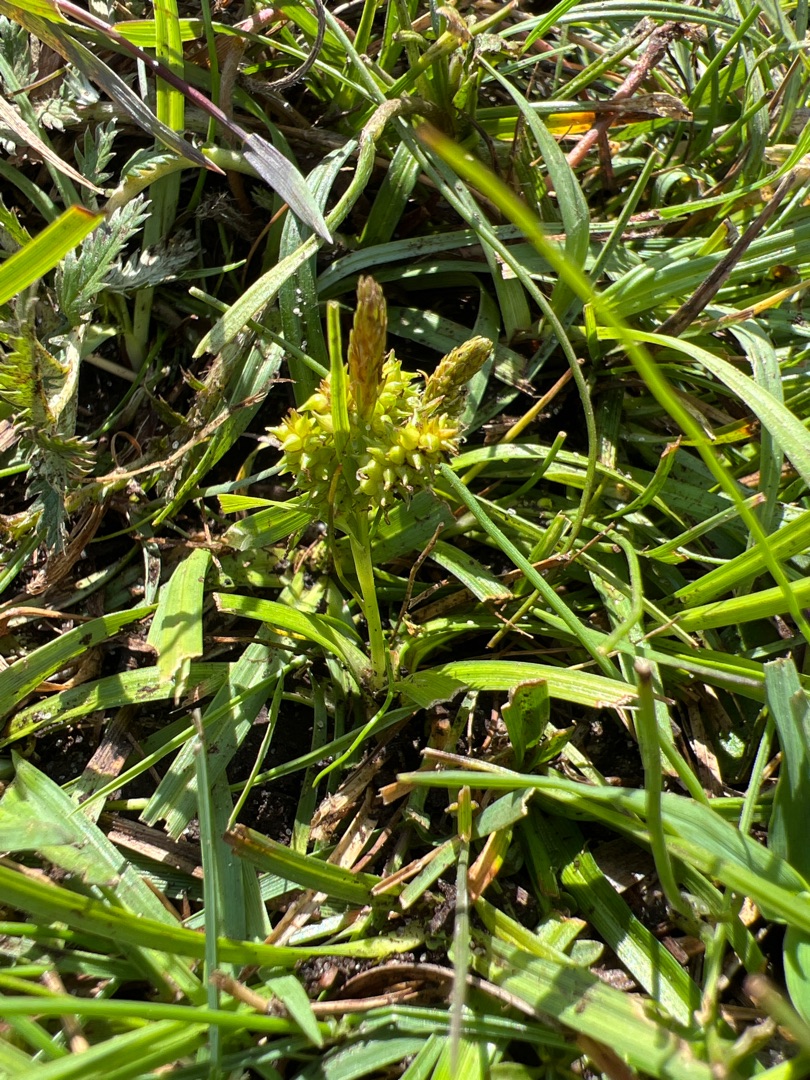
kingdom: Plantae
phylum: Tracheophyta
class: Liliopsida
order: Poales
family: Cyperaceae
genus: Carex
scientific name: Carex oederi
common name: Dværg-star (varietet)
